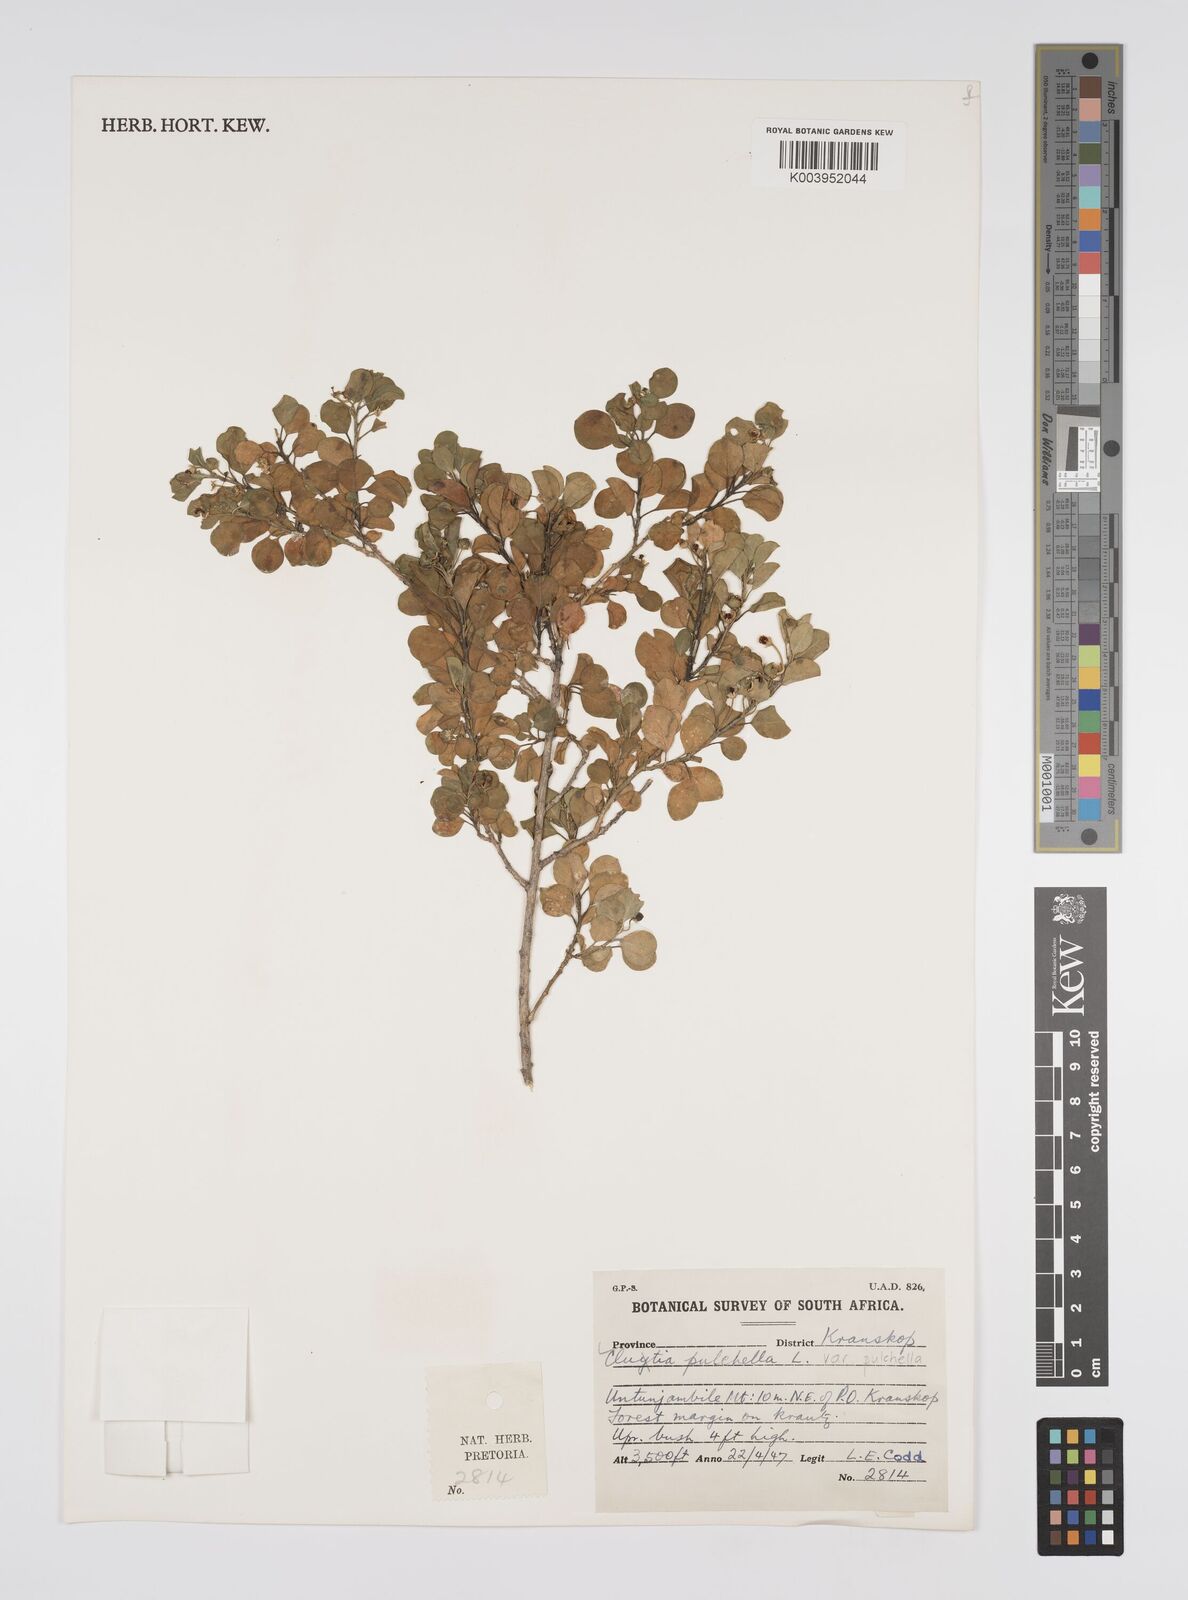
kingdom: Plantae
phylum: Tracheophyta
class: Magnoliopsida
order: Malpighiales
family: Peraceae
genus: Clutia
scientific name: Clutia pulchella
